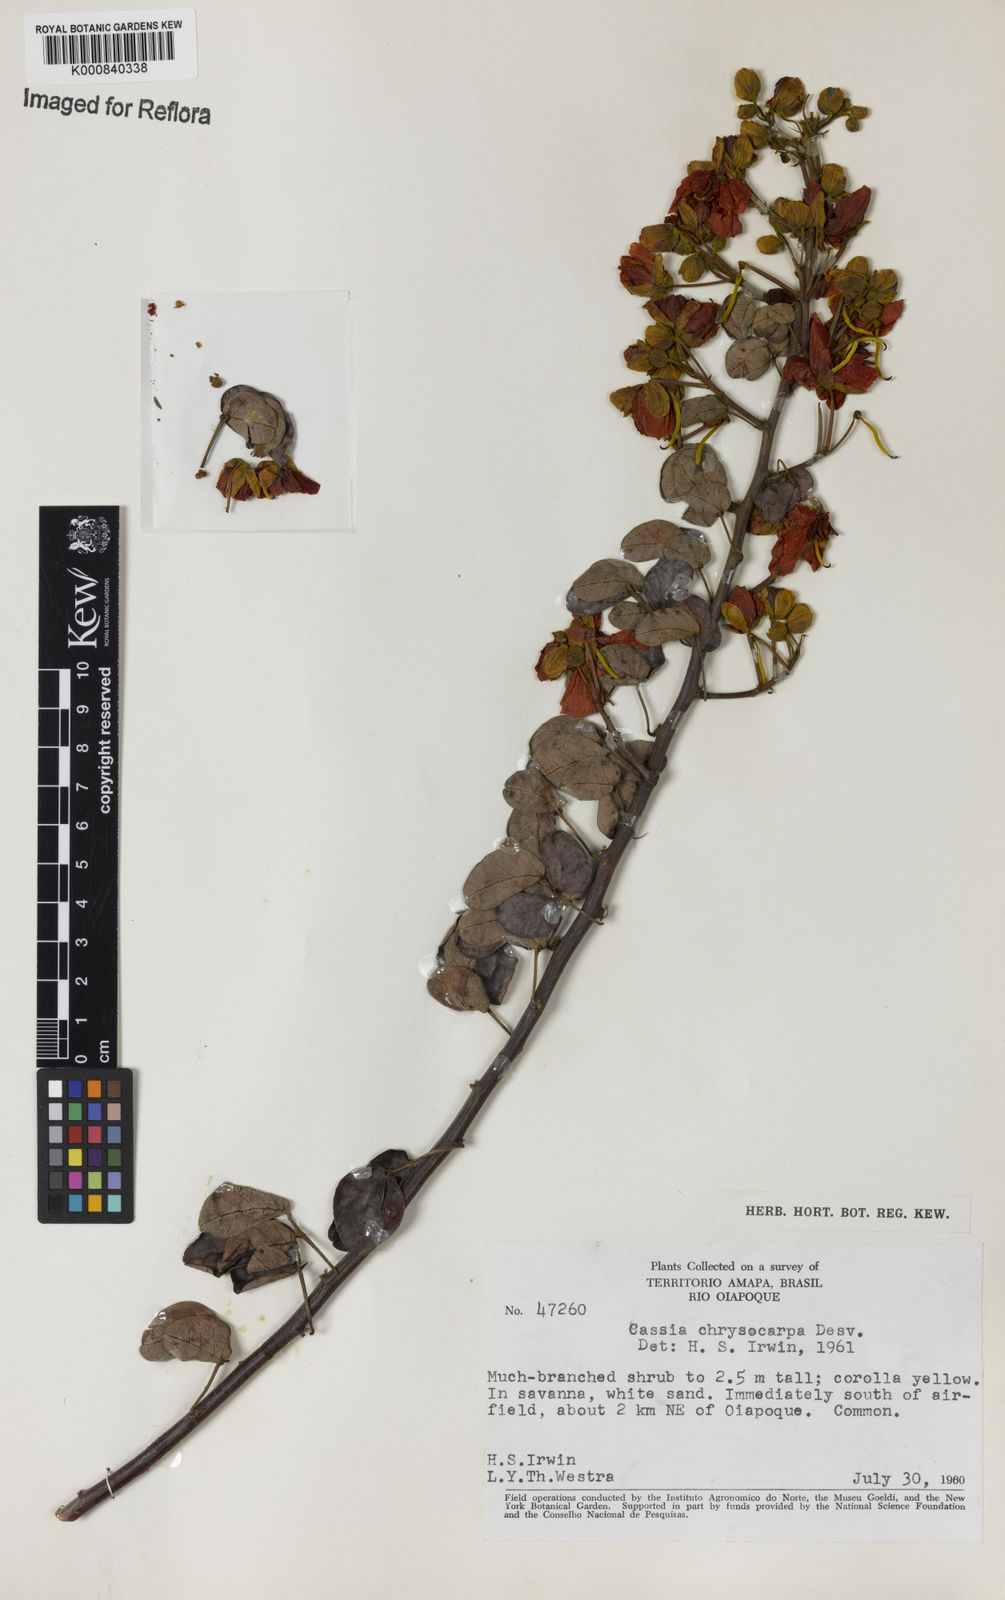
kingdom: Plantae
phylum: Tracheophyta
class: Magnoliopsida
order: Fabales
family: Fabaceae
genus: Senna
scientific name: Senna chrysocarpa
